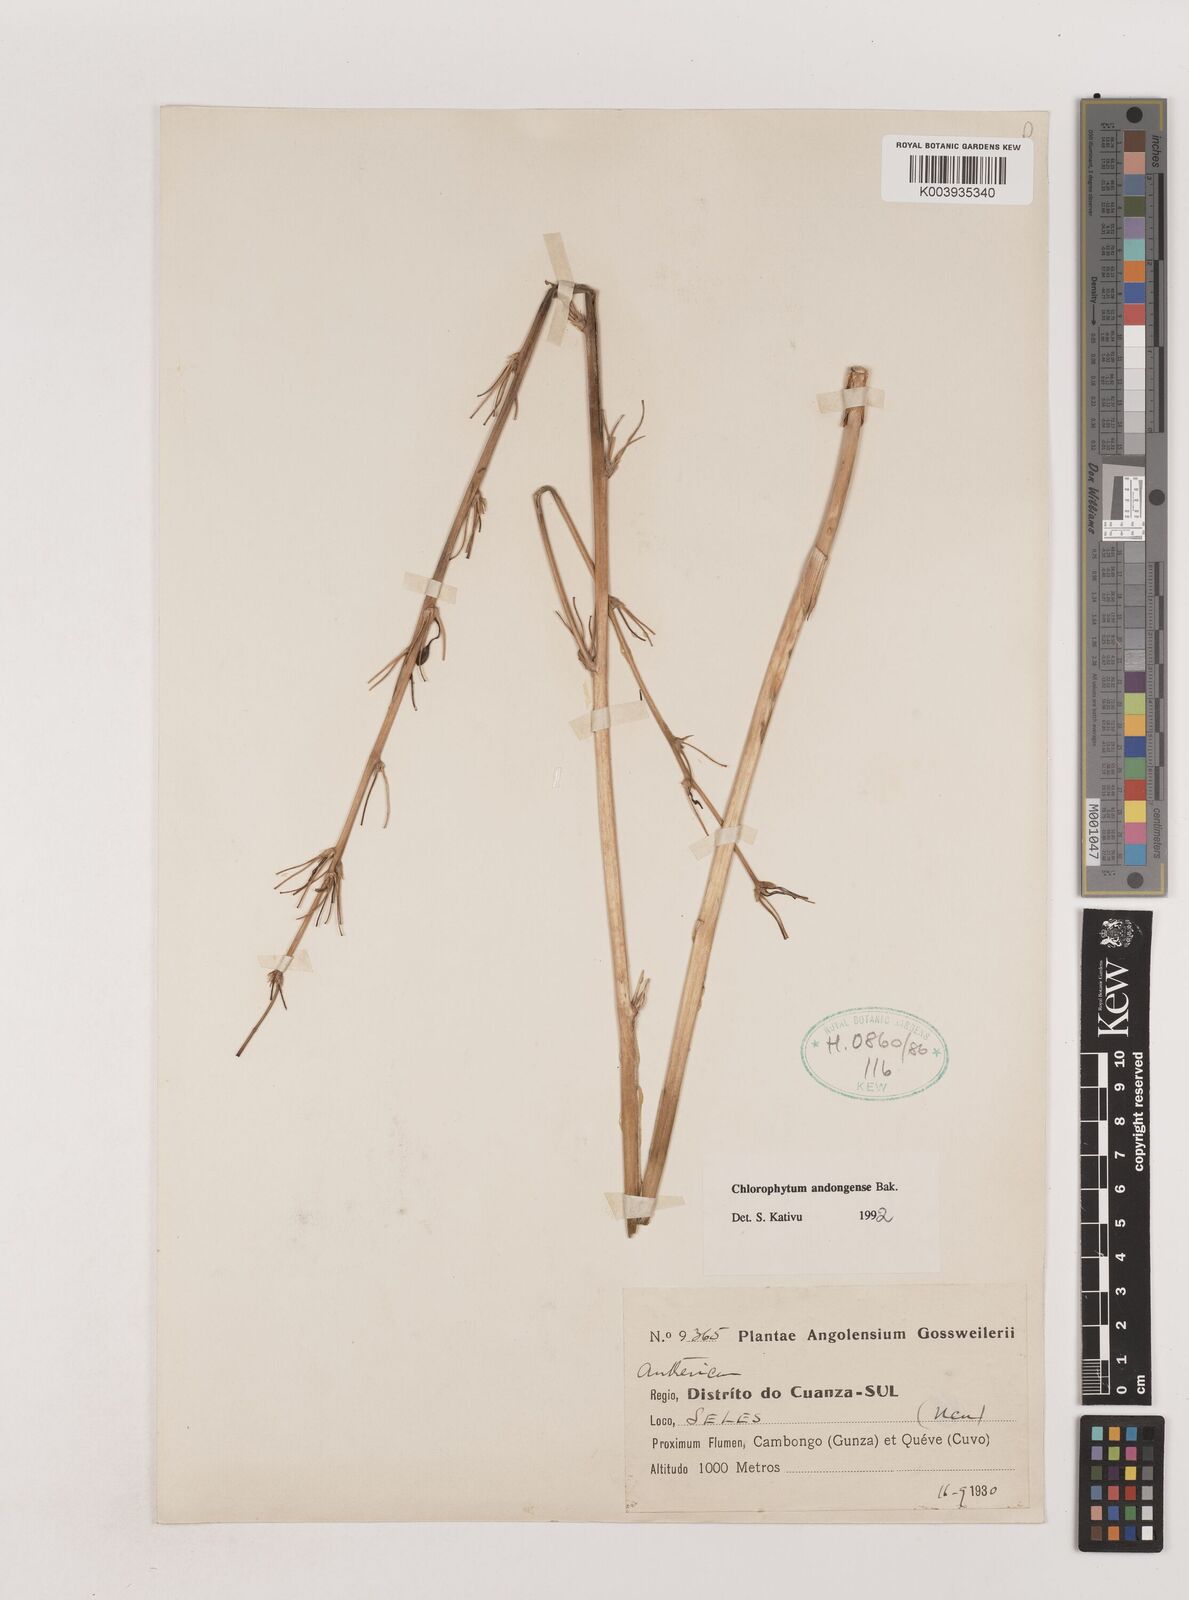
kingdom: Plantae
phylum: Tracheophyta
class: Liliopsida
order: Asparagales
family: Asparagaceae
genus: Chlorophytum
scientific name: Chlorophytum andongense
